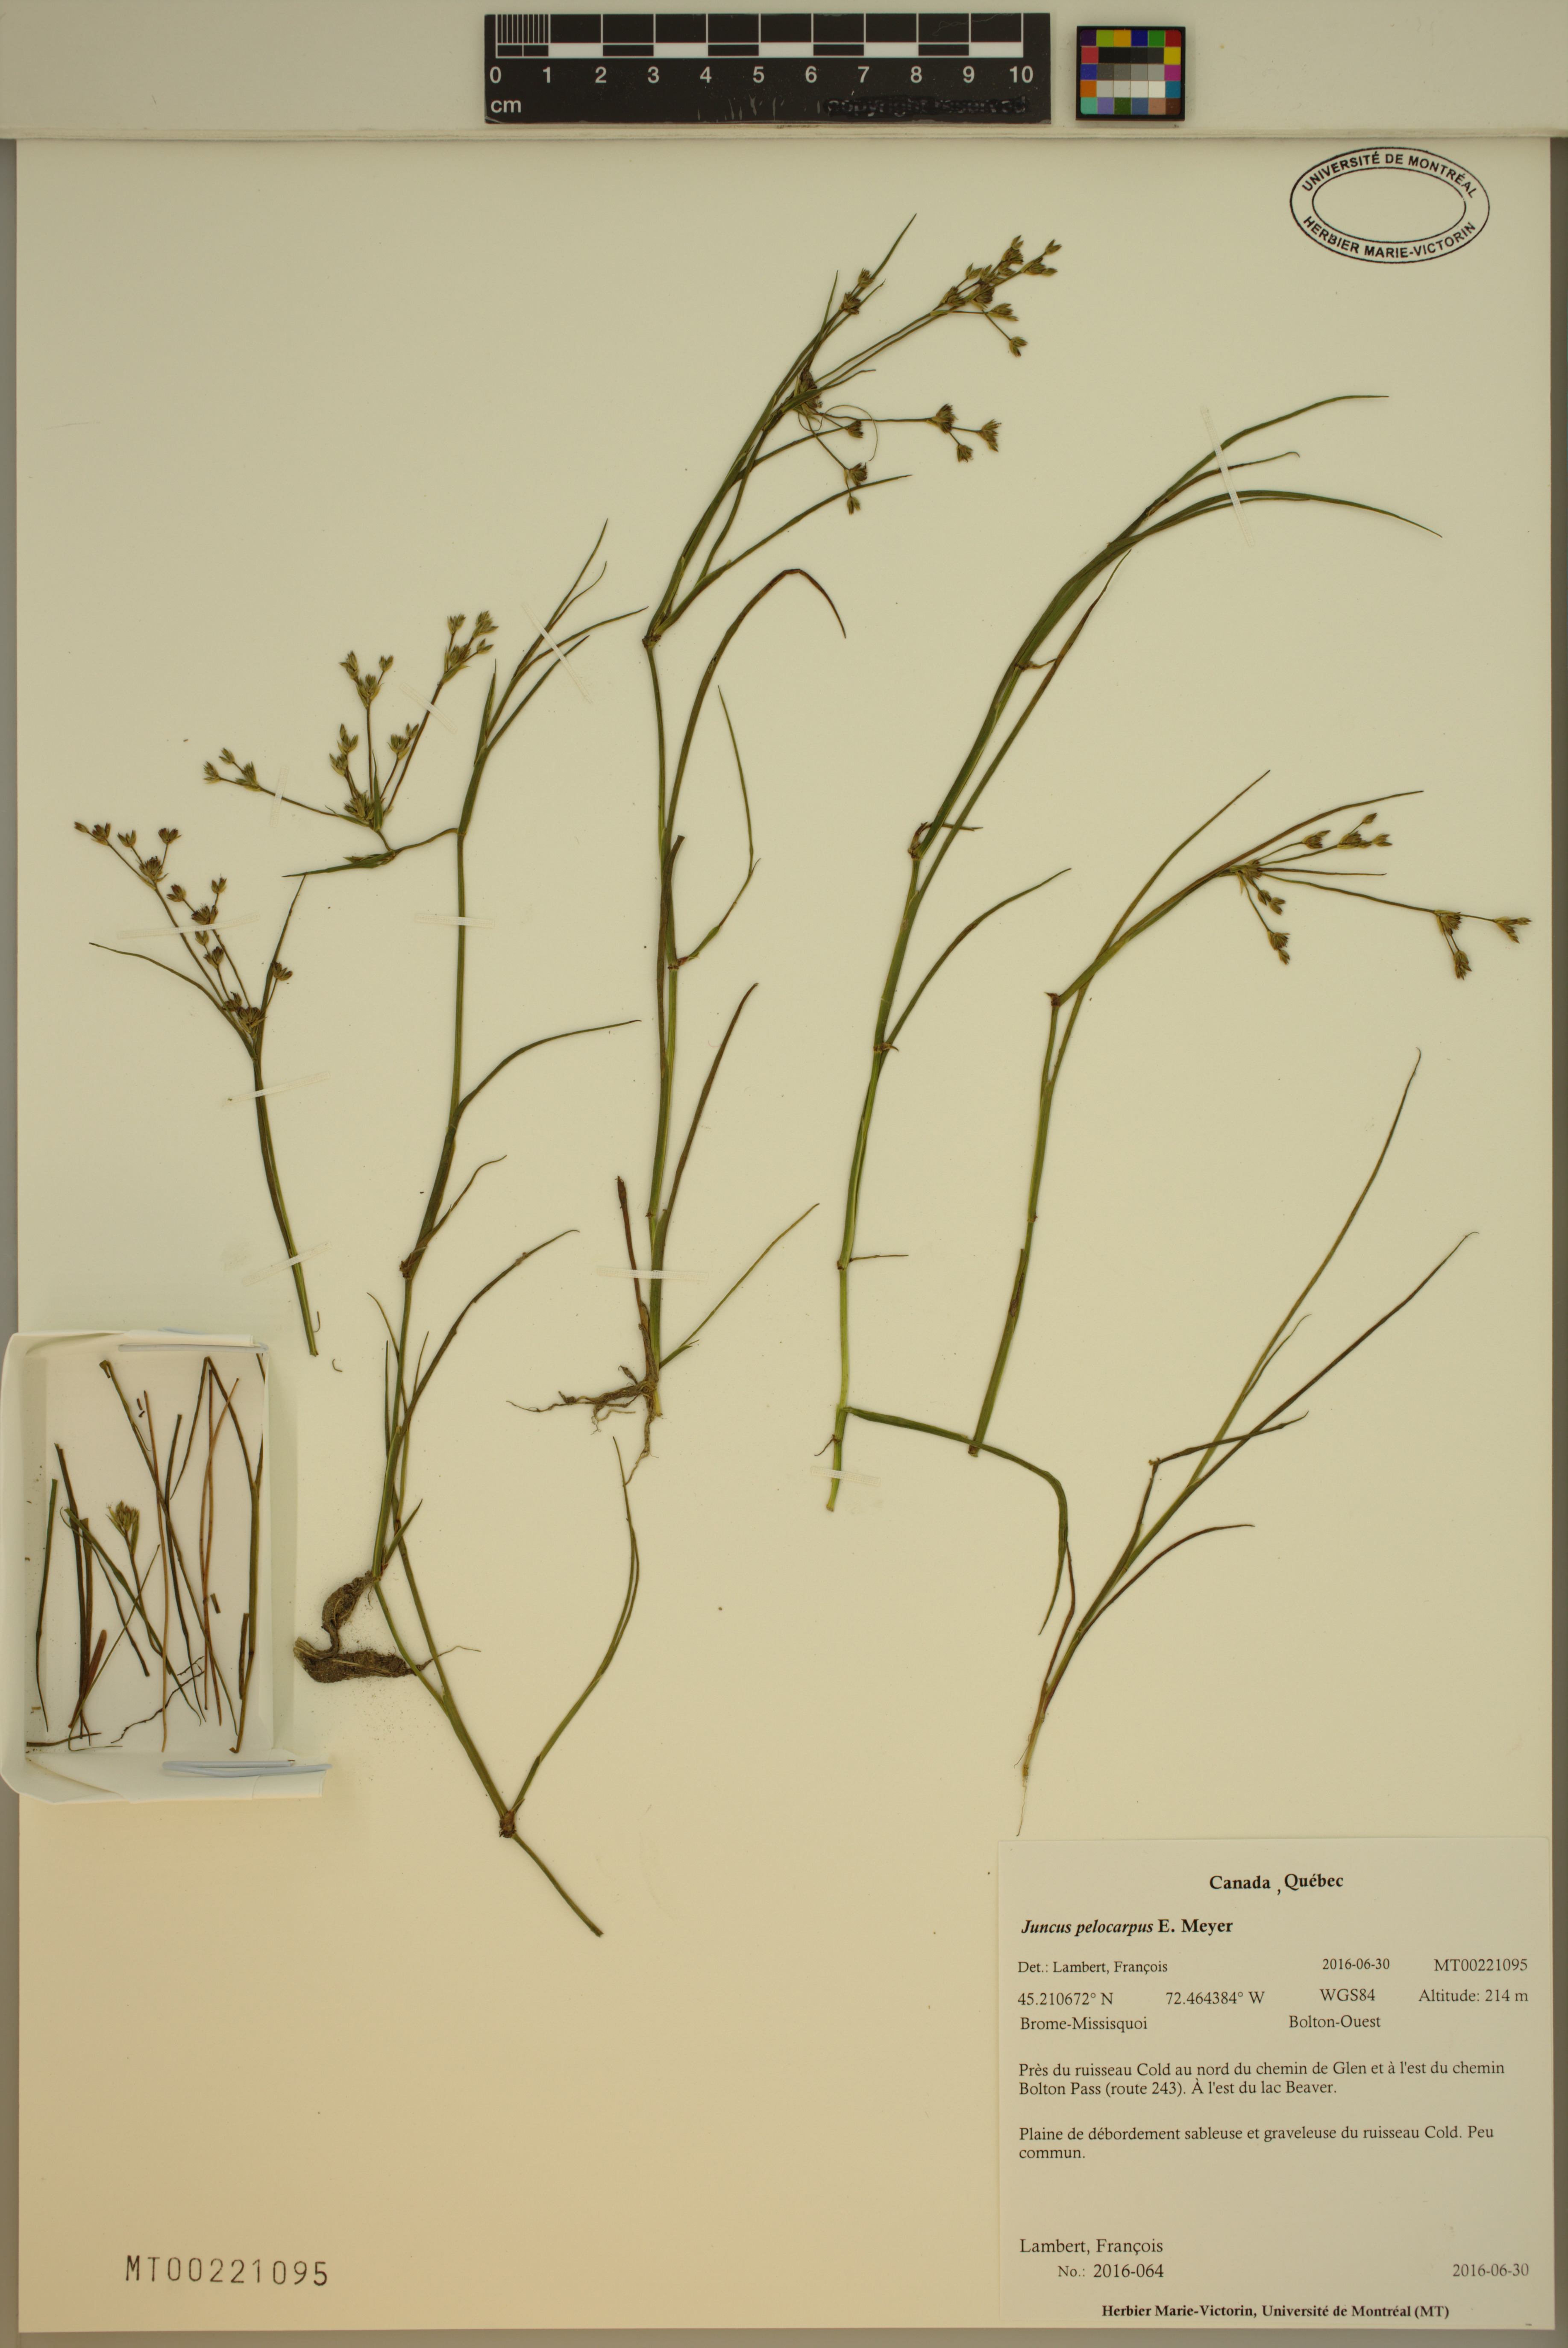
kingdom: Plantae
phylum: Tracheophyta
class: Liliopsida
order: Poales
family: Juncaceae
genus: Juncus
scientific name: Juncus pelocarpus
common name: Brown-fruited rush
